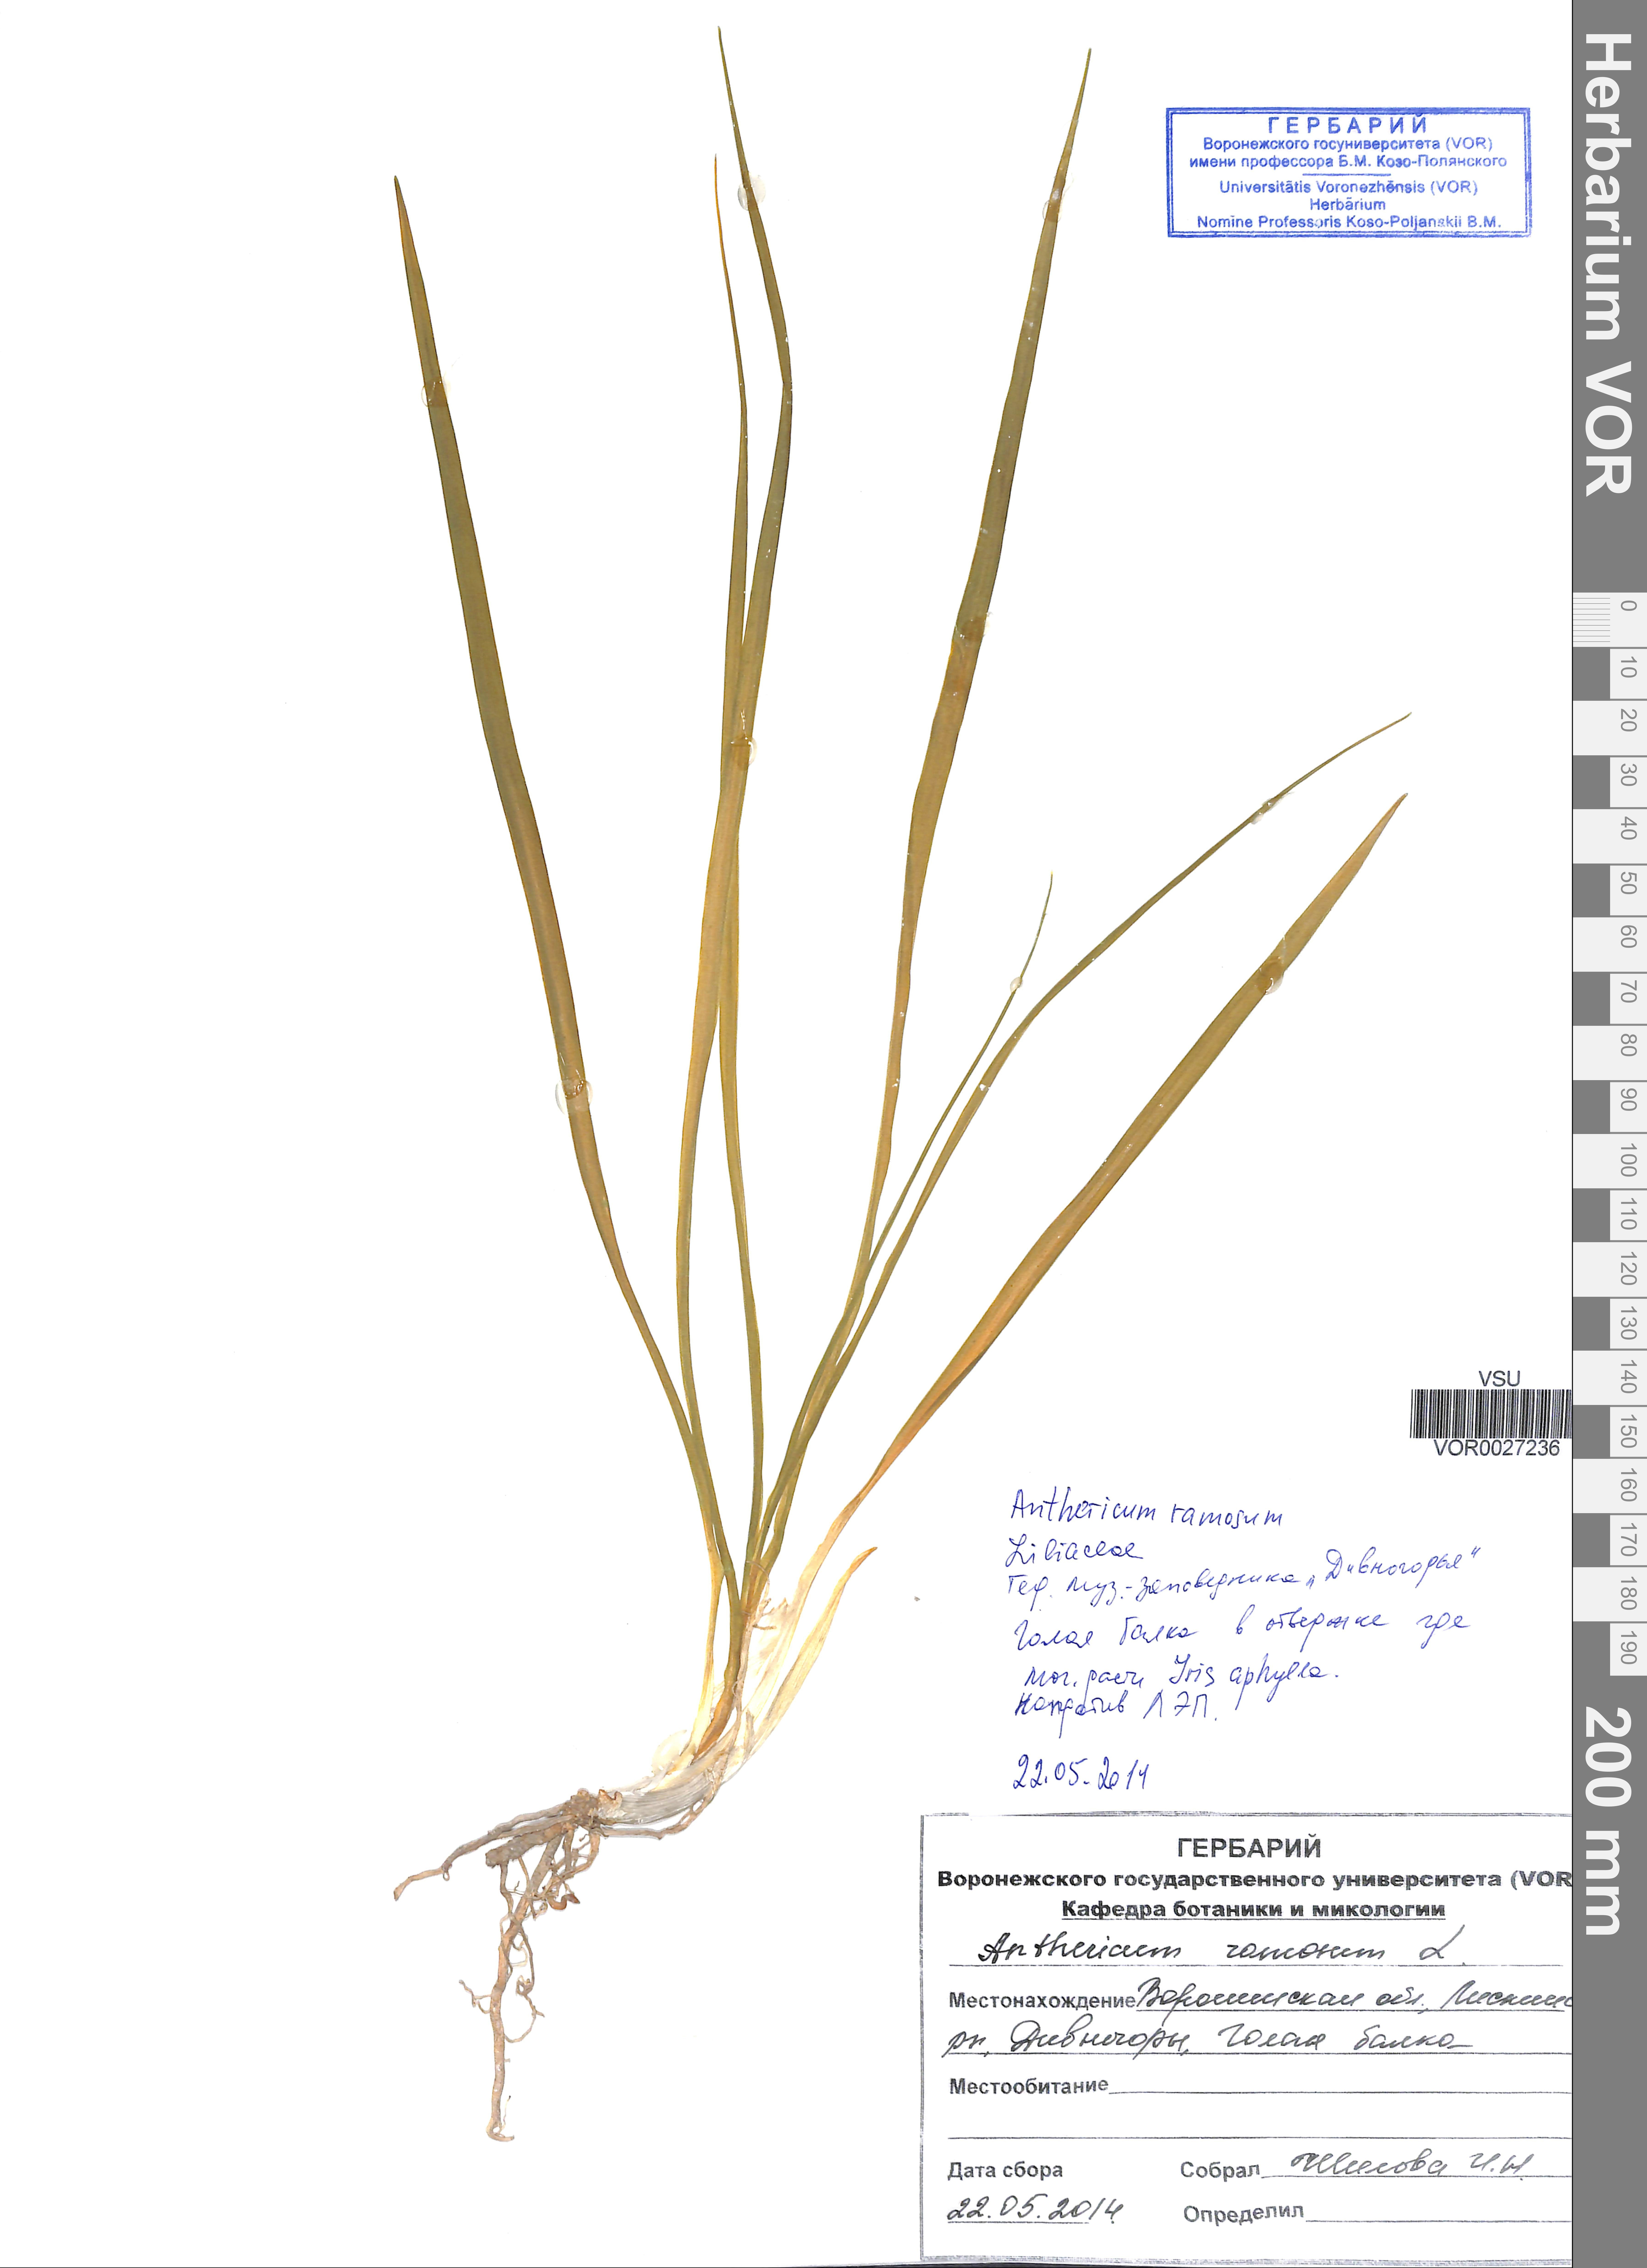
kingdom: Plantae
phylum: Tracheophyta
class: Liliopsida
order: Asparagales
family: Iridaceae
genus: Iris
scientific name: Iris aphylla
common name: Stool iris
